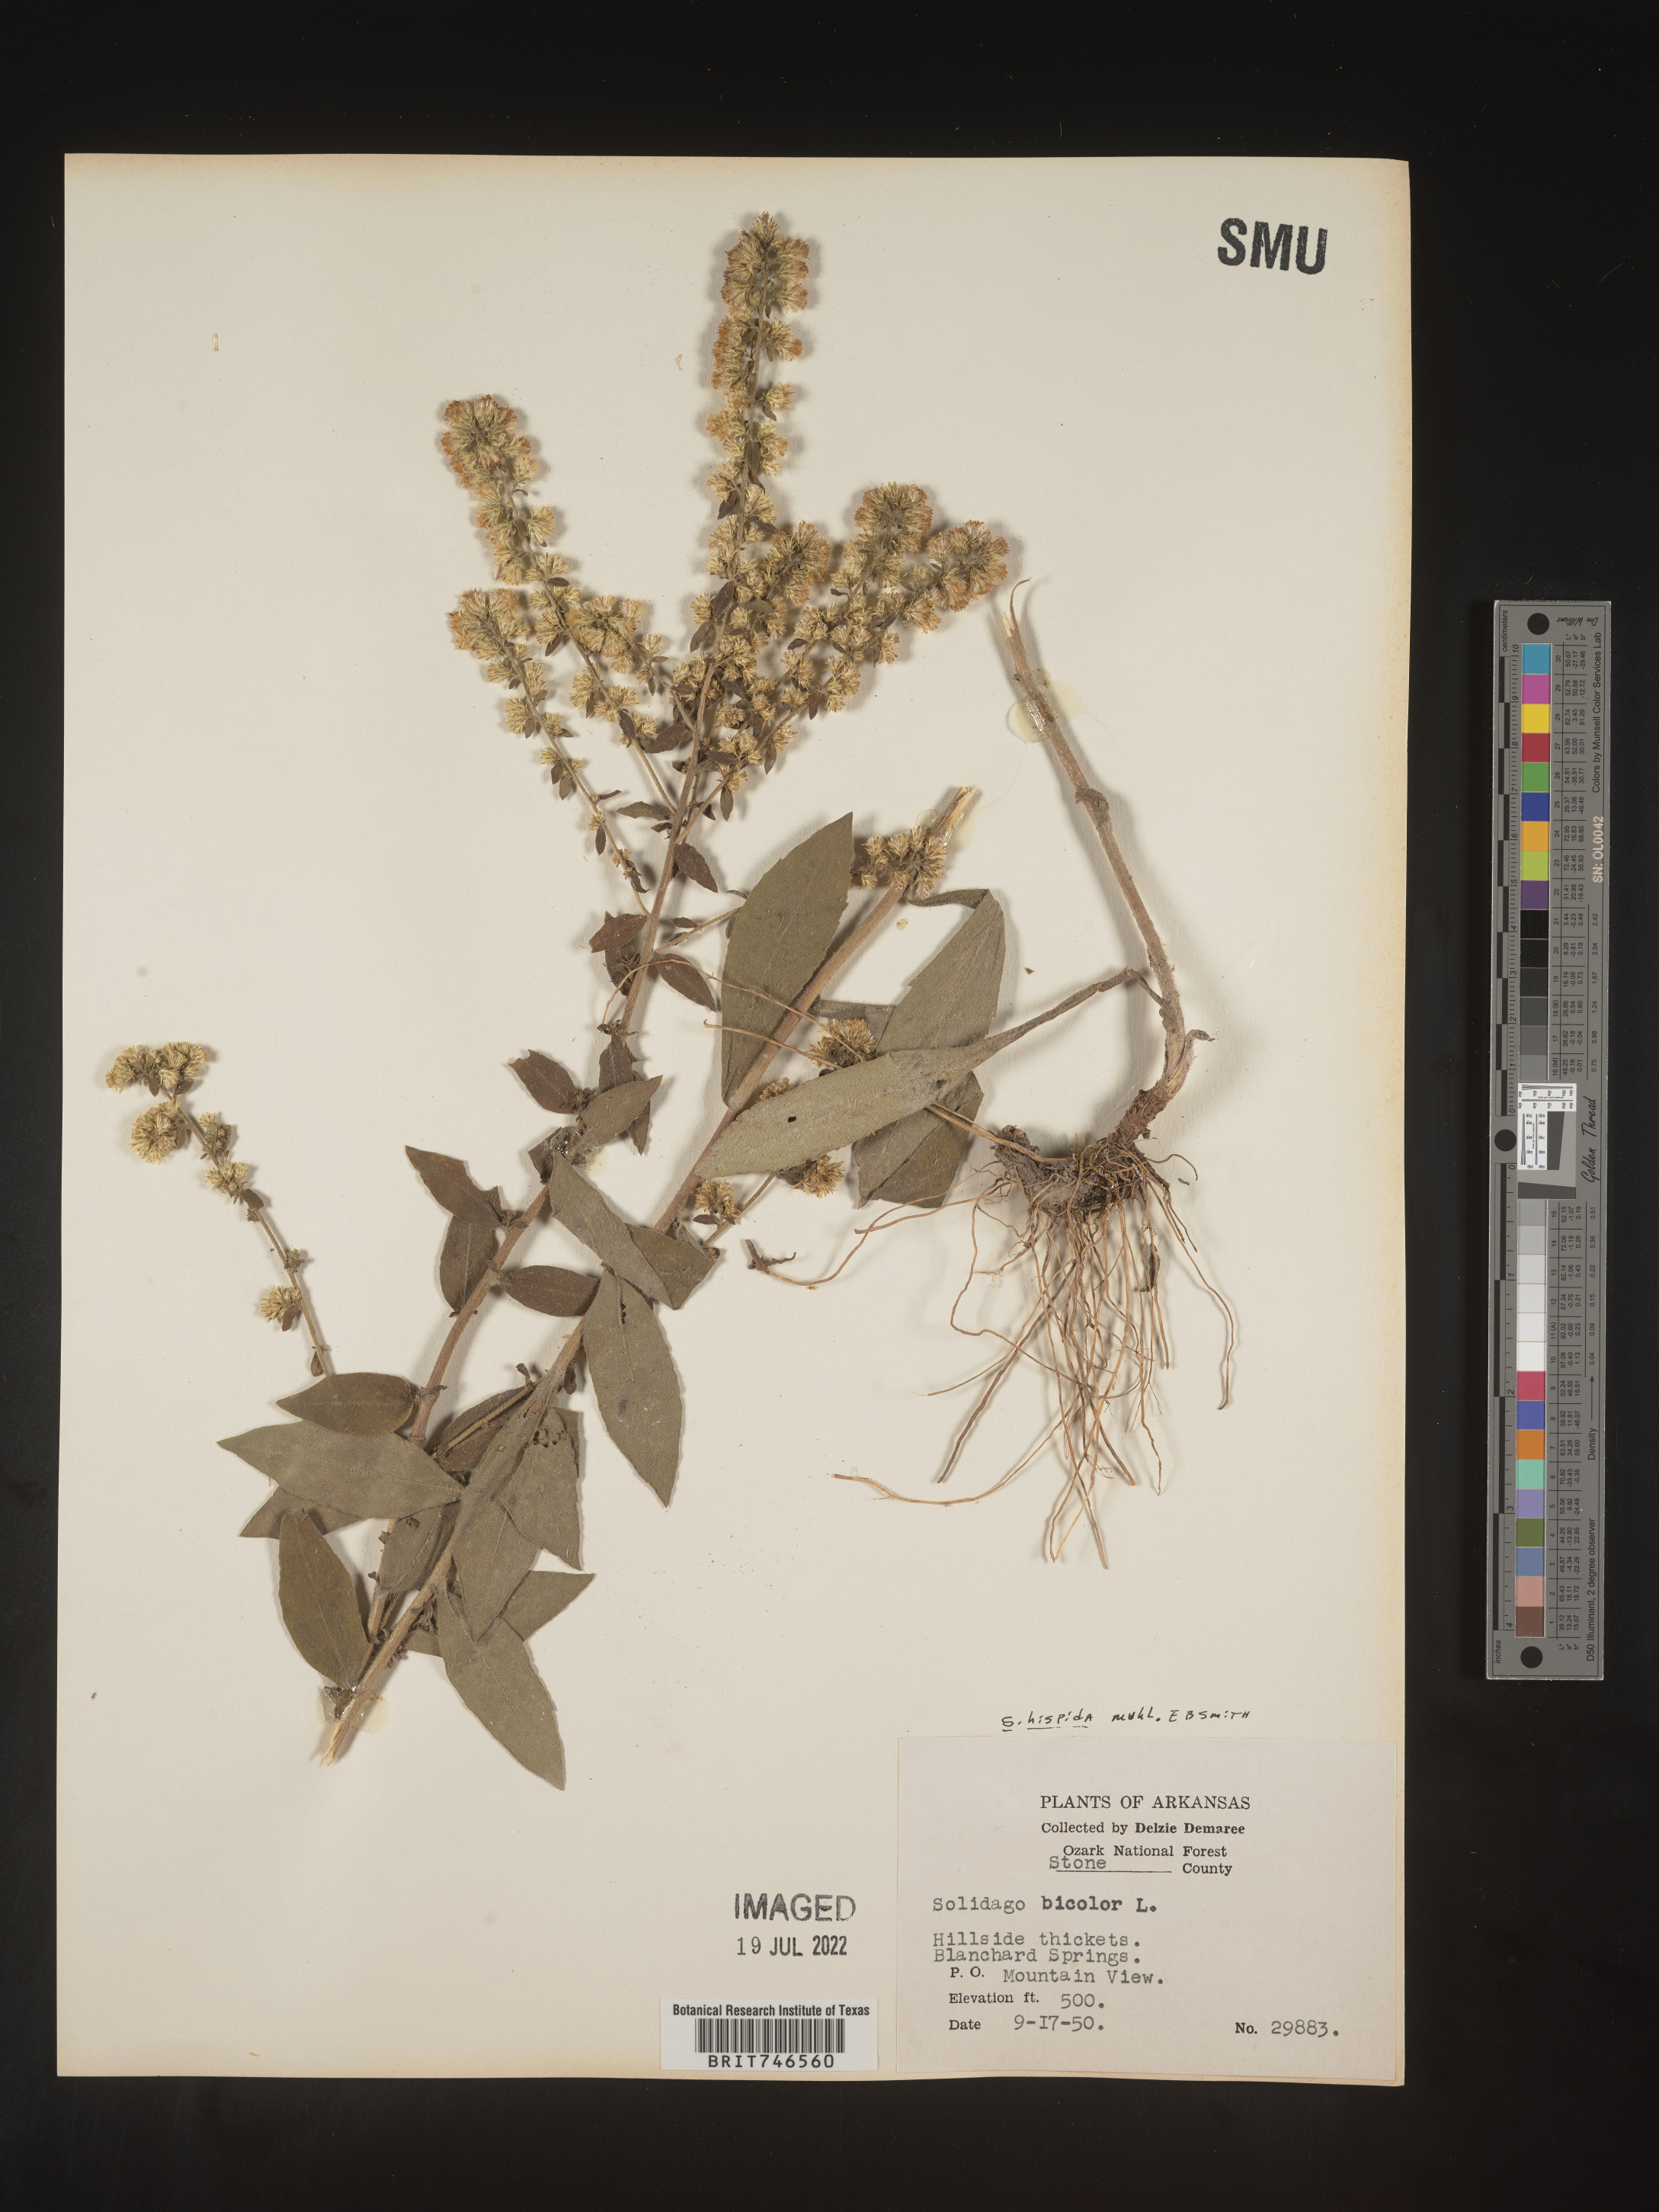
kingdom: Plantae
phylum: Tracheophyta
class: Magnoliopsida
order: Asterales
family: Asteraceae
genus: Solidago
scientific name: Solidago hispida
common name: Hairy goldenrod
